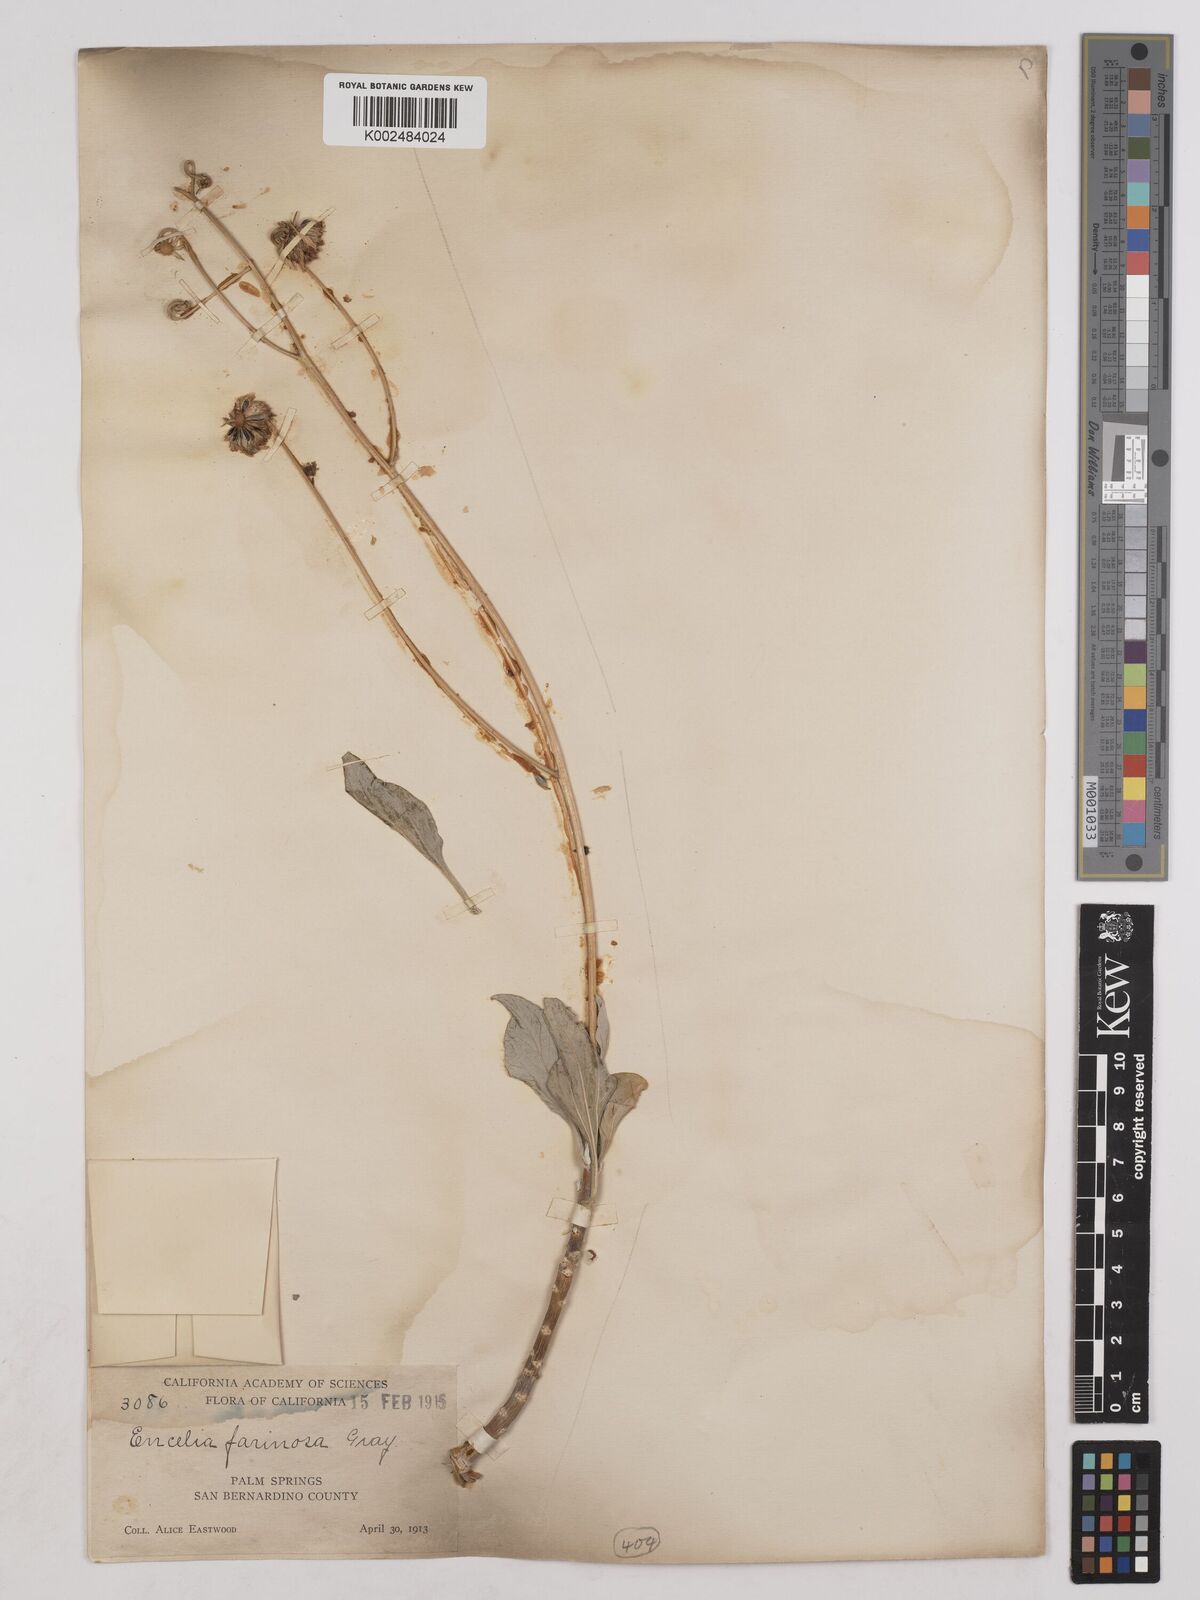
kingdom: Plantae
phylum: Tracheophyta
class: Magnoliopsida
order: Asterales
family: Asteraceae
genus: Encelia
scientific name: Encelia farinosa
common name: Brittlebush
